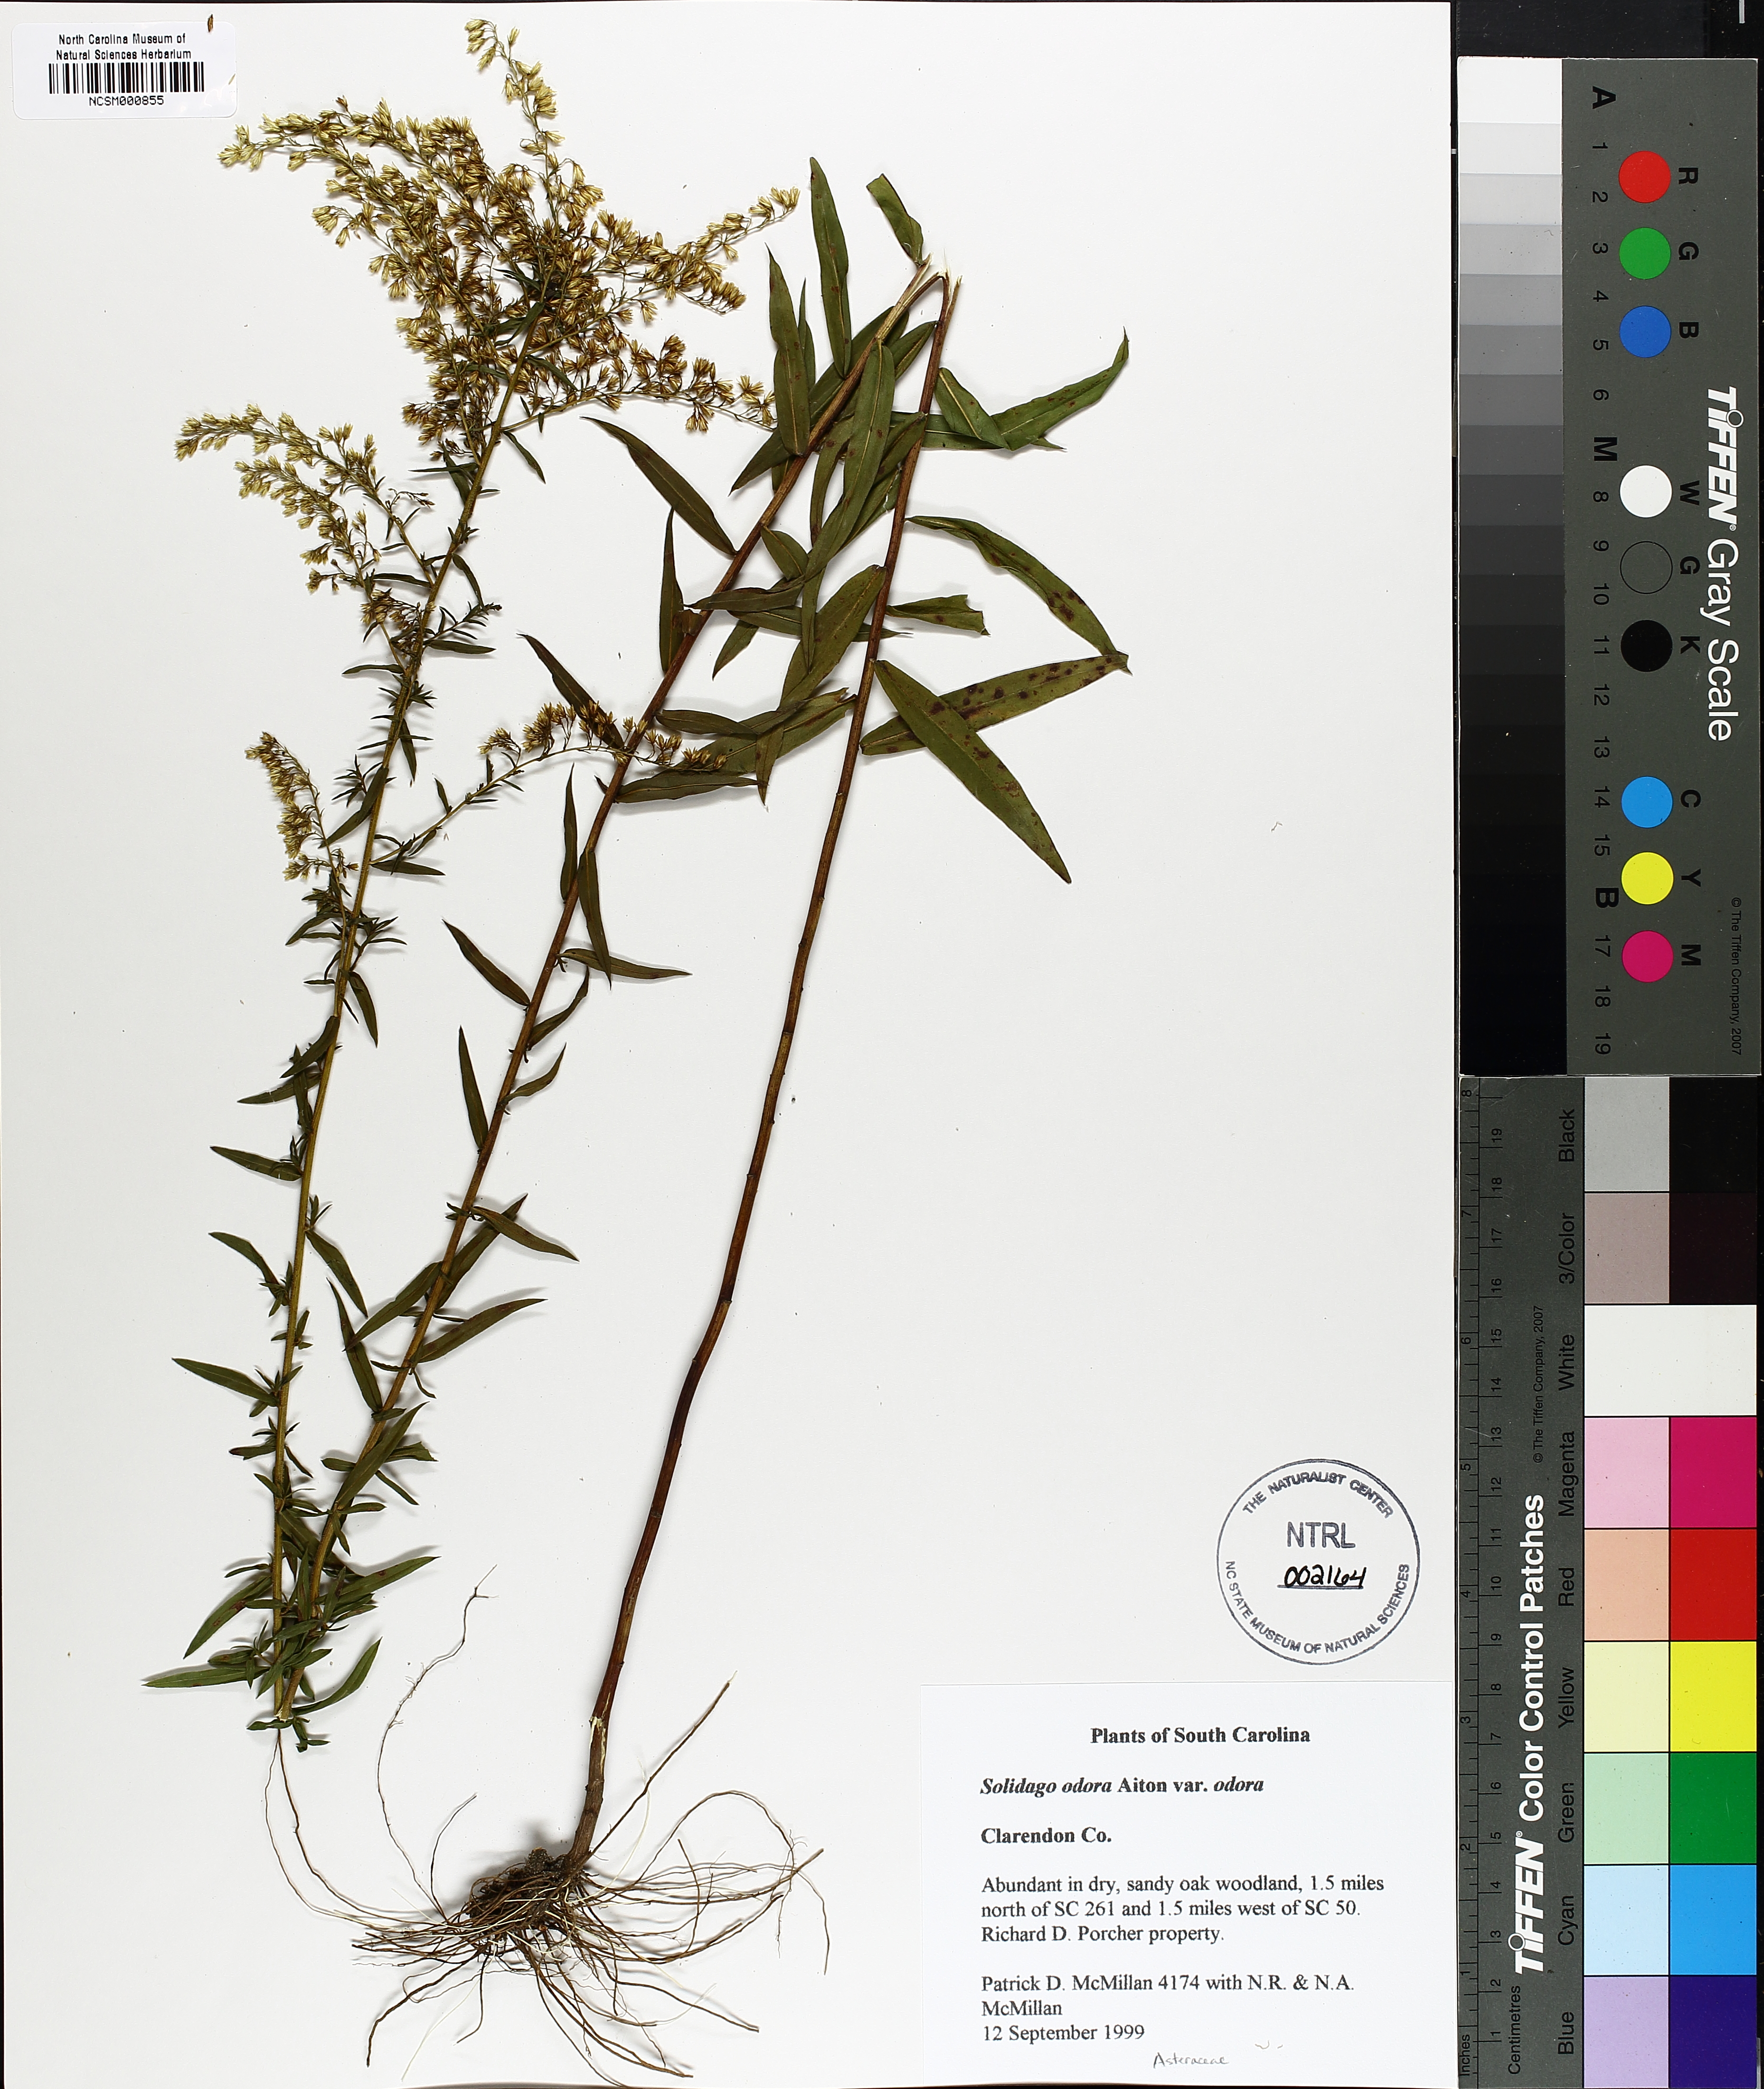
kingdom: Plantae
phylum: Tracheophyta
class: Magnoliopsida
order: Asterales
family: Asteraceae
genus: Solidago
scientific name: Solidago odora
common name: Anise-scented goldenrod
